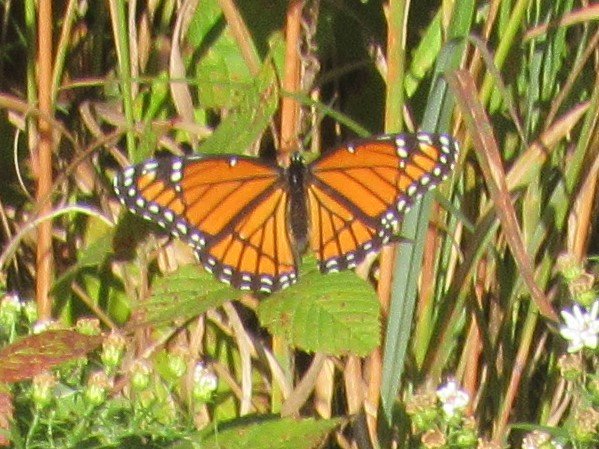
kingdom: Animalia
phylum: Arthropoda
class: Insecta
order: Lepidoptera
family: Nymphalidae
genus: Limenitis
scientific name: Limenitis archippus
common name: Viceroy
